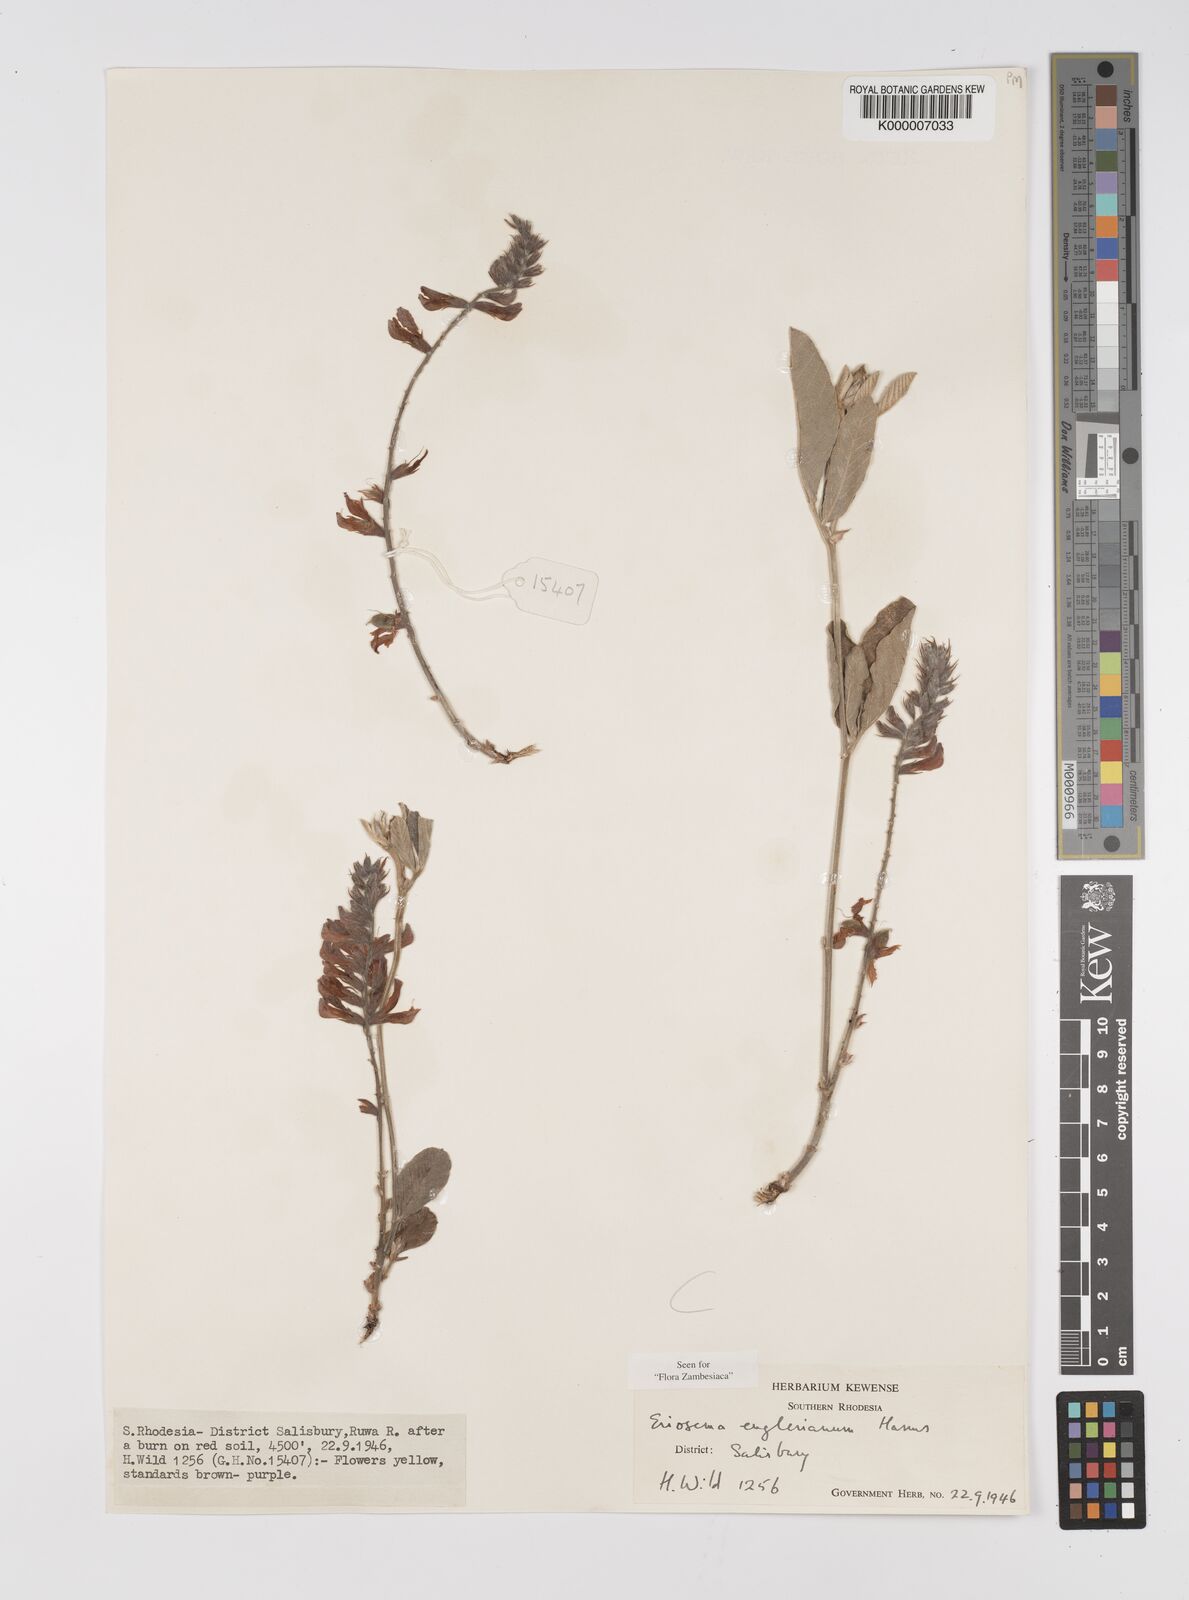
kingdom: Plantae
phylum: Tracheophyta
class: Magnoliopsida
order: Fabales
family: Fabaceae
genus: Eriosema
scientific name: Eriosema englerianum
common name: Blue bush
